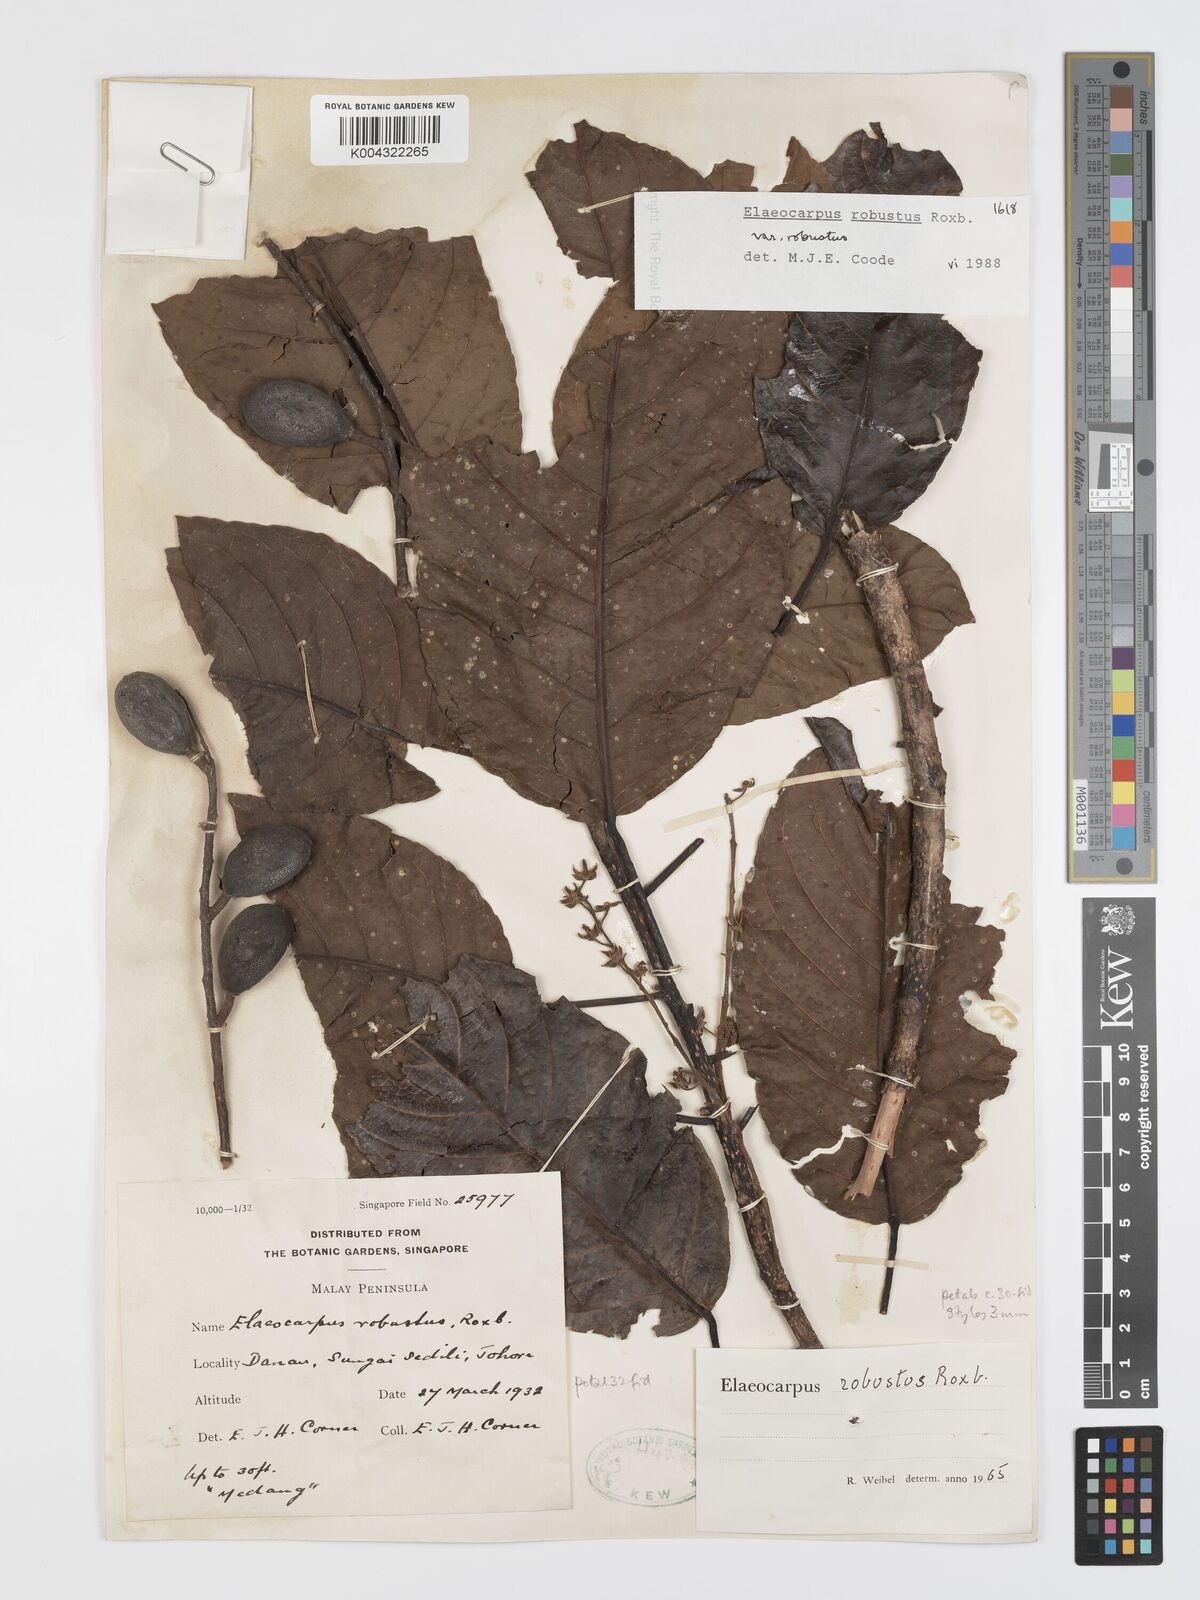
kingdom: Plantae
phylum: Tracheophyta
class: Magnoliopsida
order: Oxalidales
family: Elaeocarpaceae
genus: Elaeocarpus
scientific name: Elaeocarpus robustus
